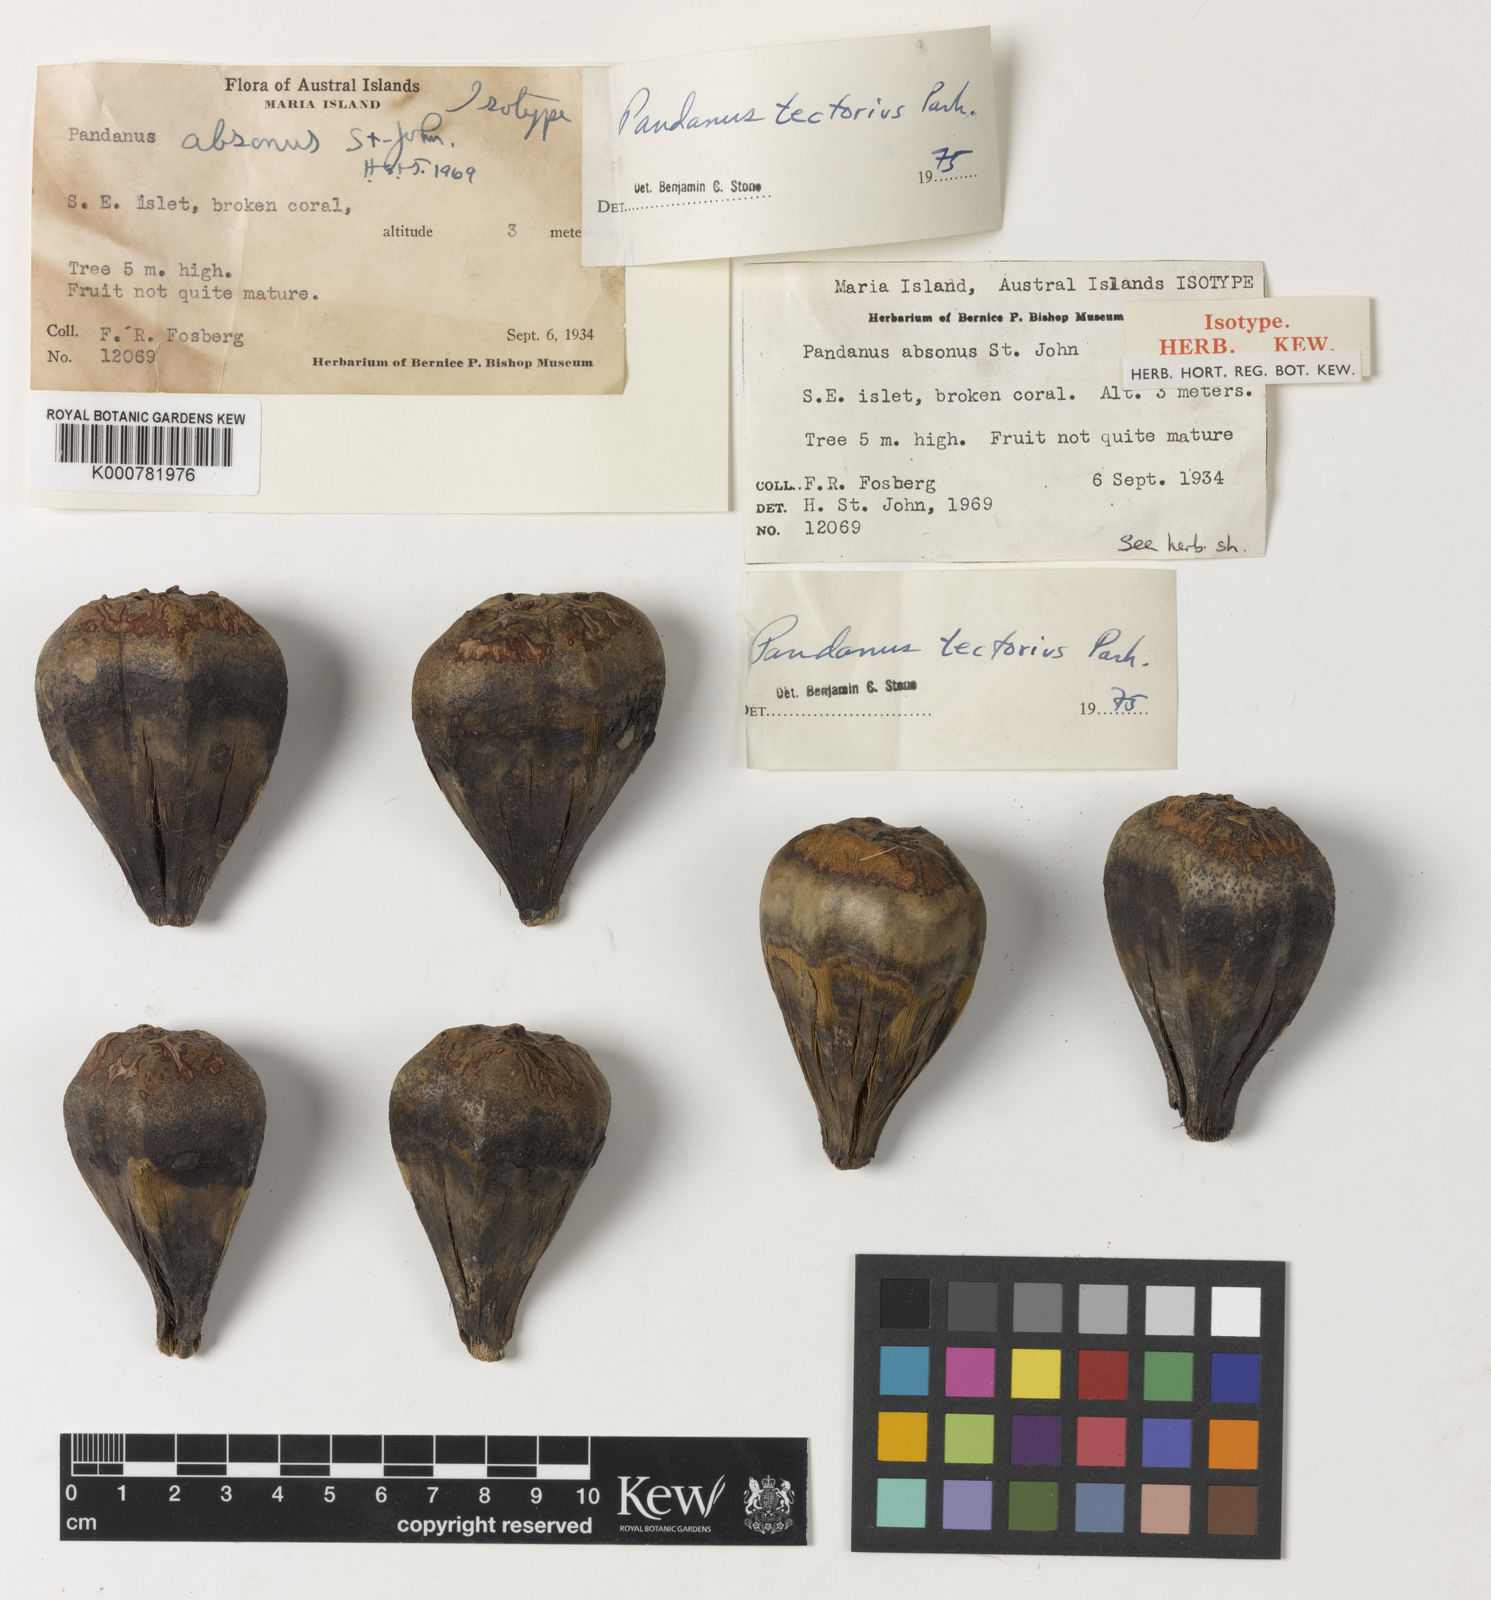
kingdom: Plantae
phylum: Tracheophyta
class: Liliopsida
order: Pandanales
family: Pandanaceae
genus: Pandanus
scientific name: Pandanus tectorius
